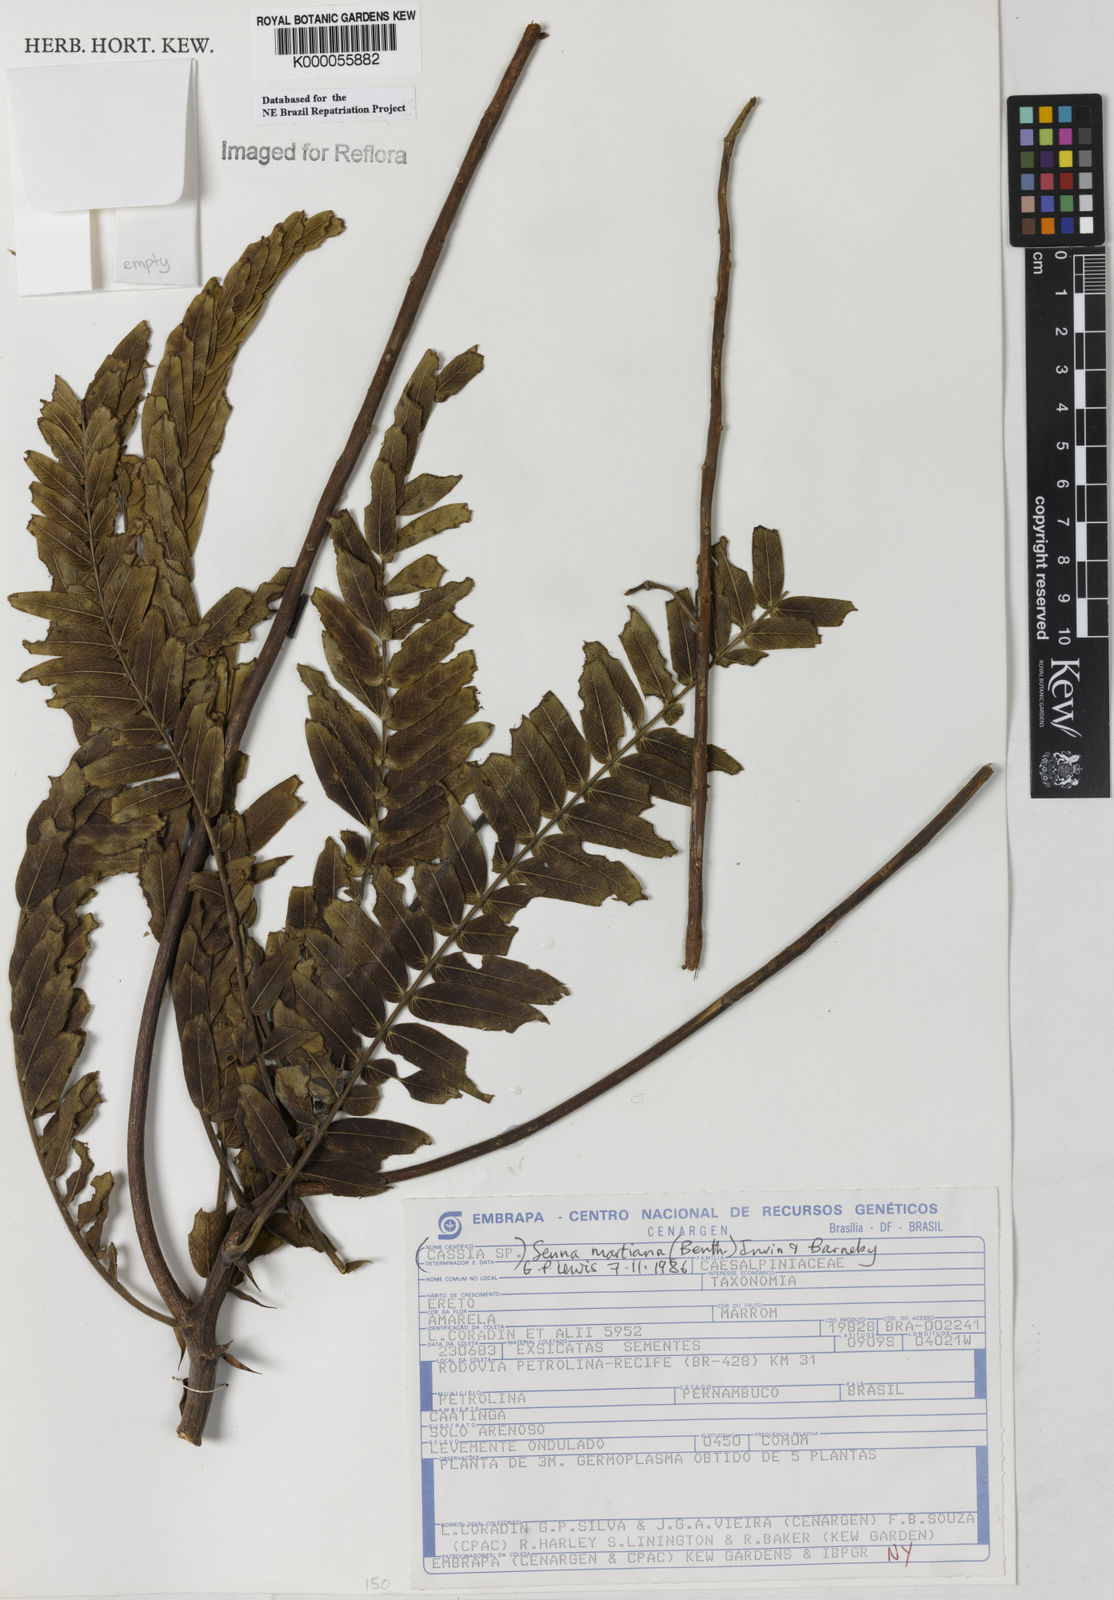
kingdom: Plantae
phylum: Tracheophyta
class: Magnoliopsida
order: Fabales
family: Fabaceae
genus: Senna
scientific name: Senna martiana
